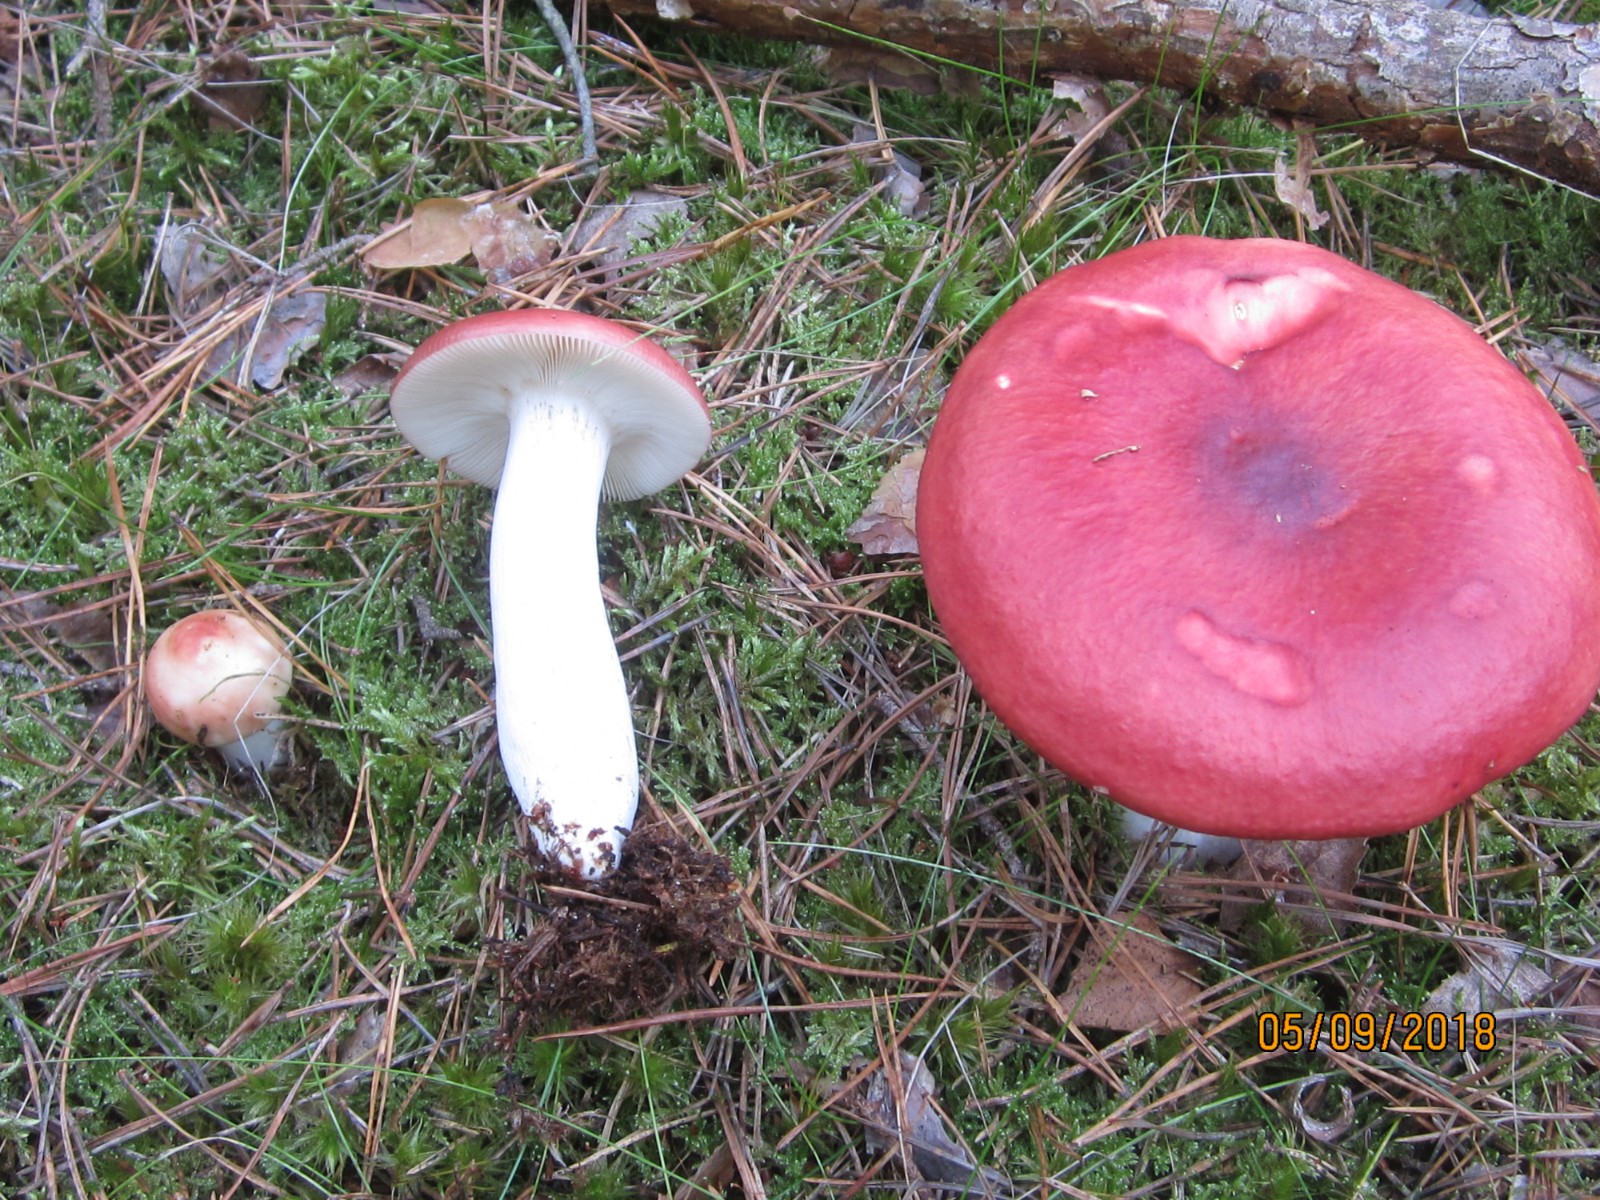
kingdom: Fungi
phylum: Basidiomycota
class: Agaricomycetes
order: Russulales
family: Russulaceae
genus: Russula
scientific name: Russula paludosa
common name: prægtig skørhat
